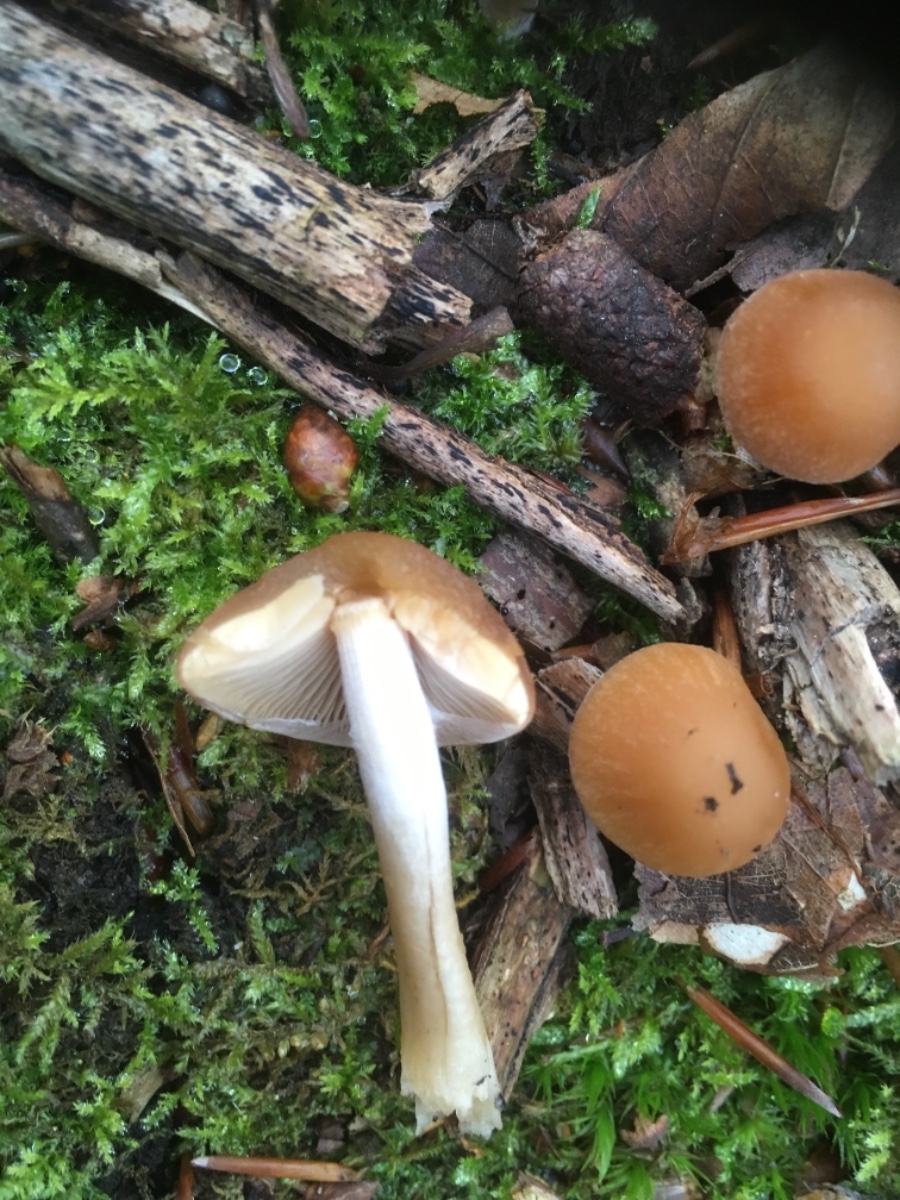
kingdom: Fungi
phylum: Basidiomycota
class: Agaricomycetes
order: Agaricales
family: Psathyrellaceae
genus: Psathyrella
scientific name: Psathyrella piluliformis
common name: lysstokket mørkhat
